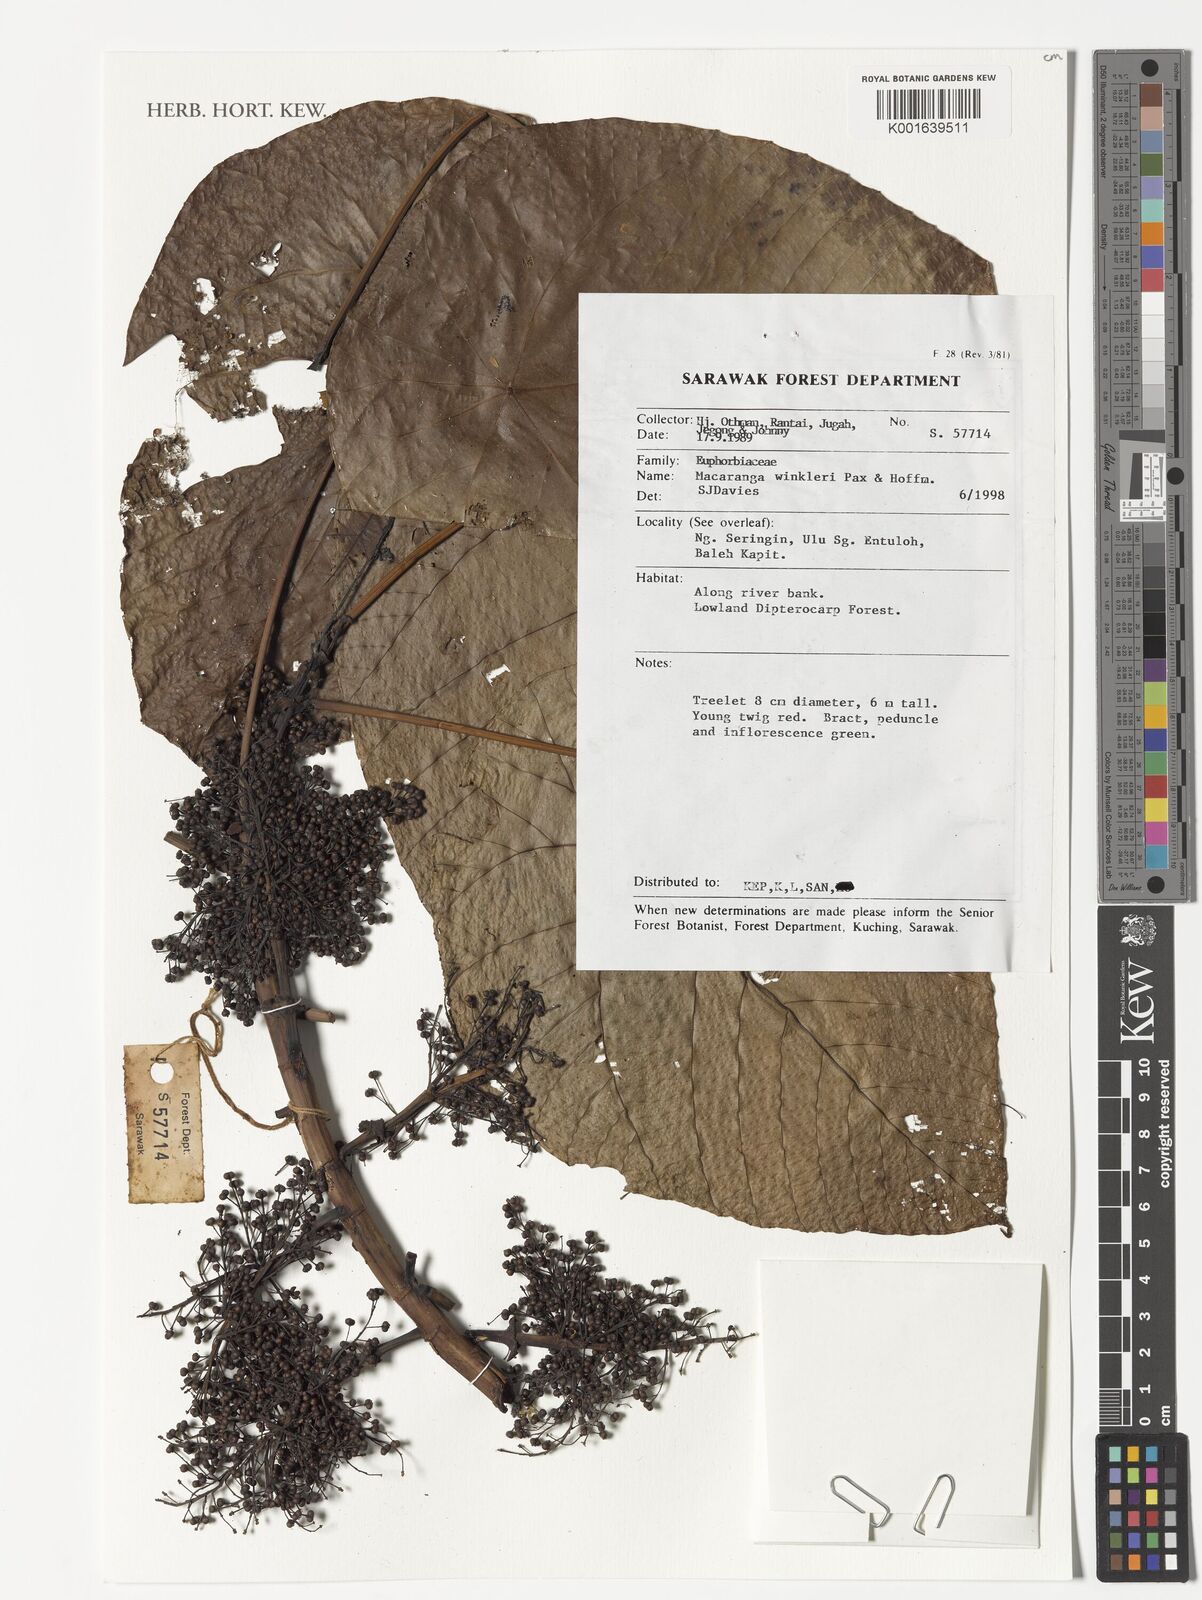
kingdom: Plantae
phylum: Tracheophyta
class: Magnoliopsida
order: Malpighiales
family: Euphorbiaceae
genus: Macaranga
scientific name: Macaranga winkleri
